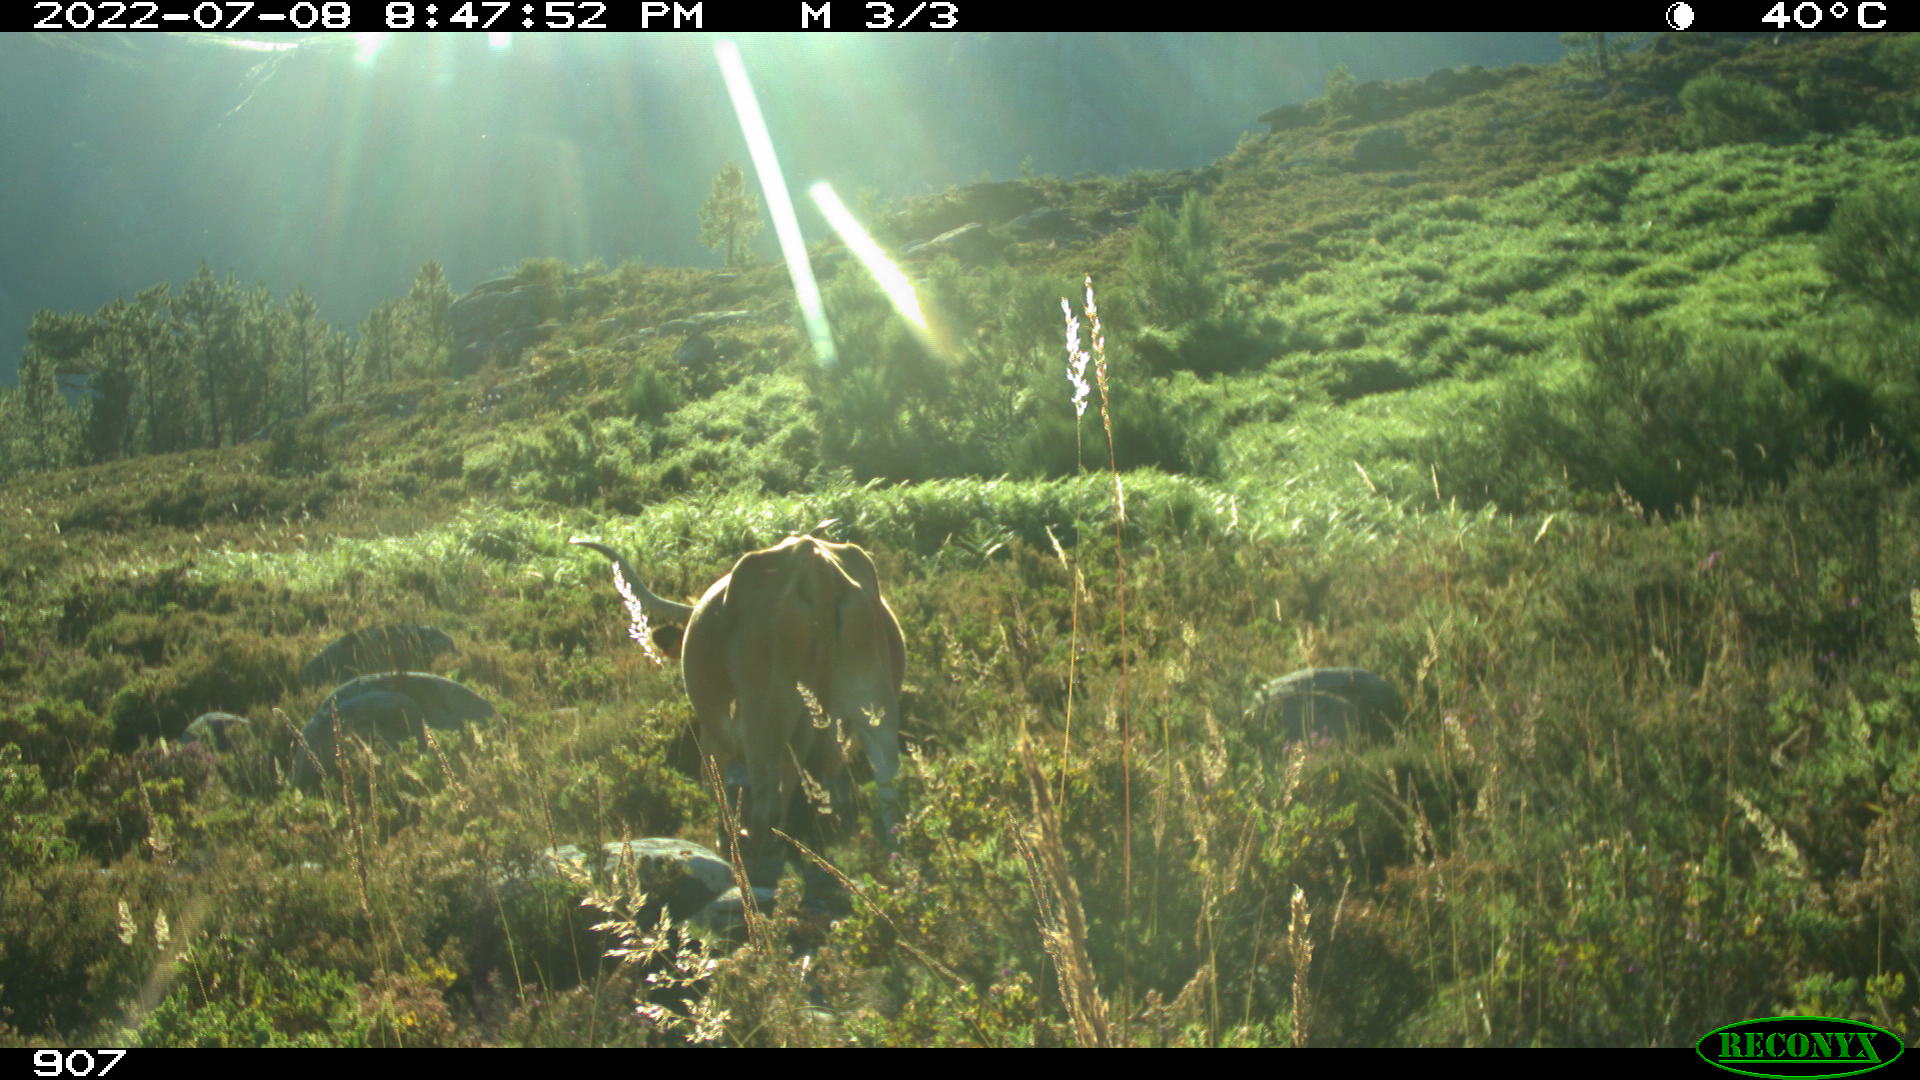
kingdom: Animalia
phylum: Chordata
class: Mammalia
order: Artiodactyla
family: Bovidae
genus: Bos
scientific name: Bos taurus
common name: Domesticated cattle
